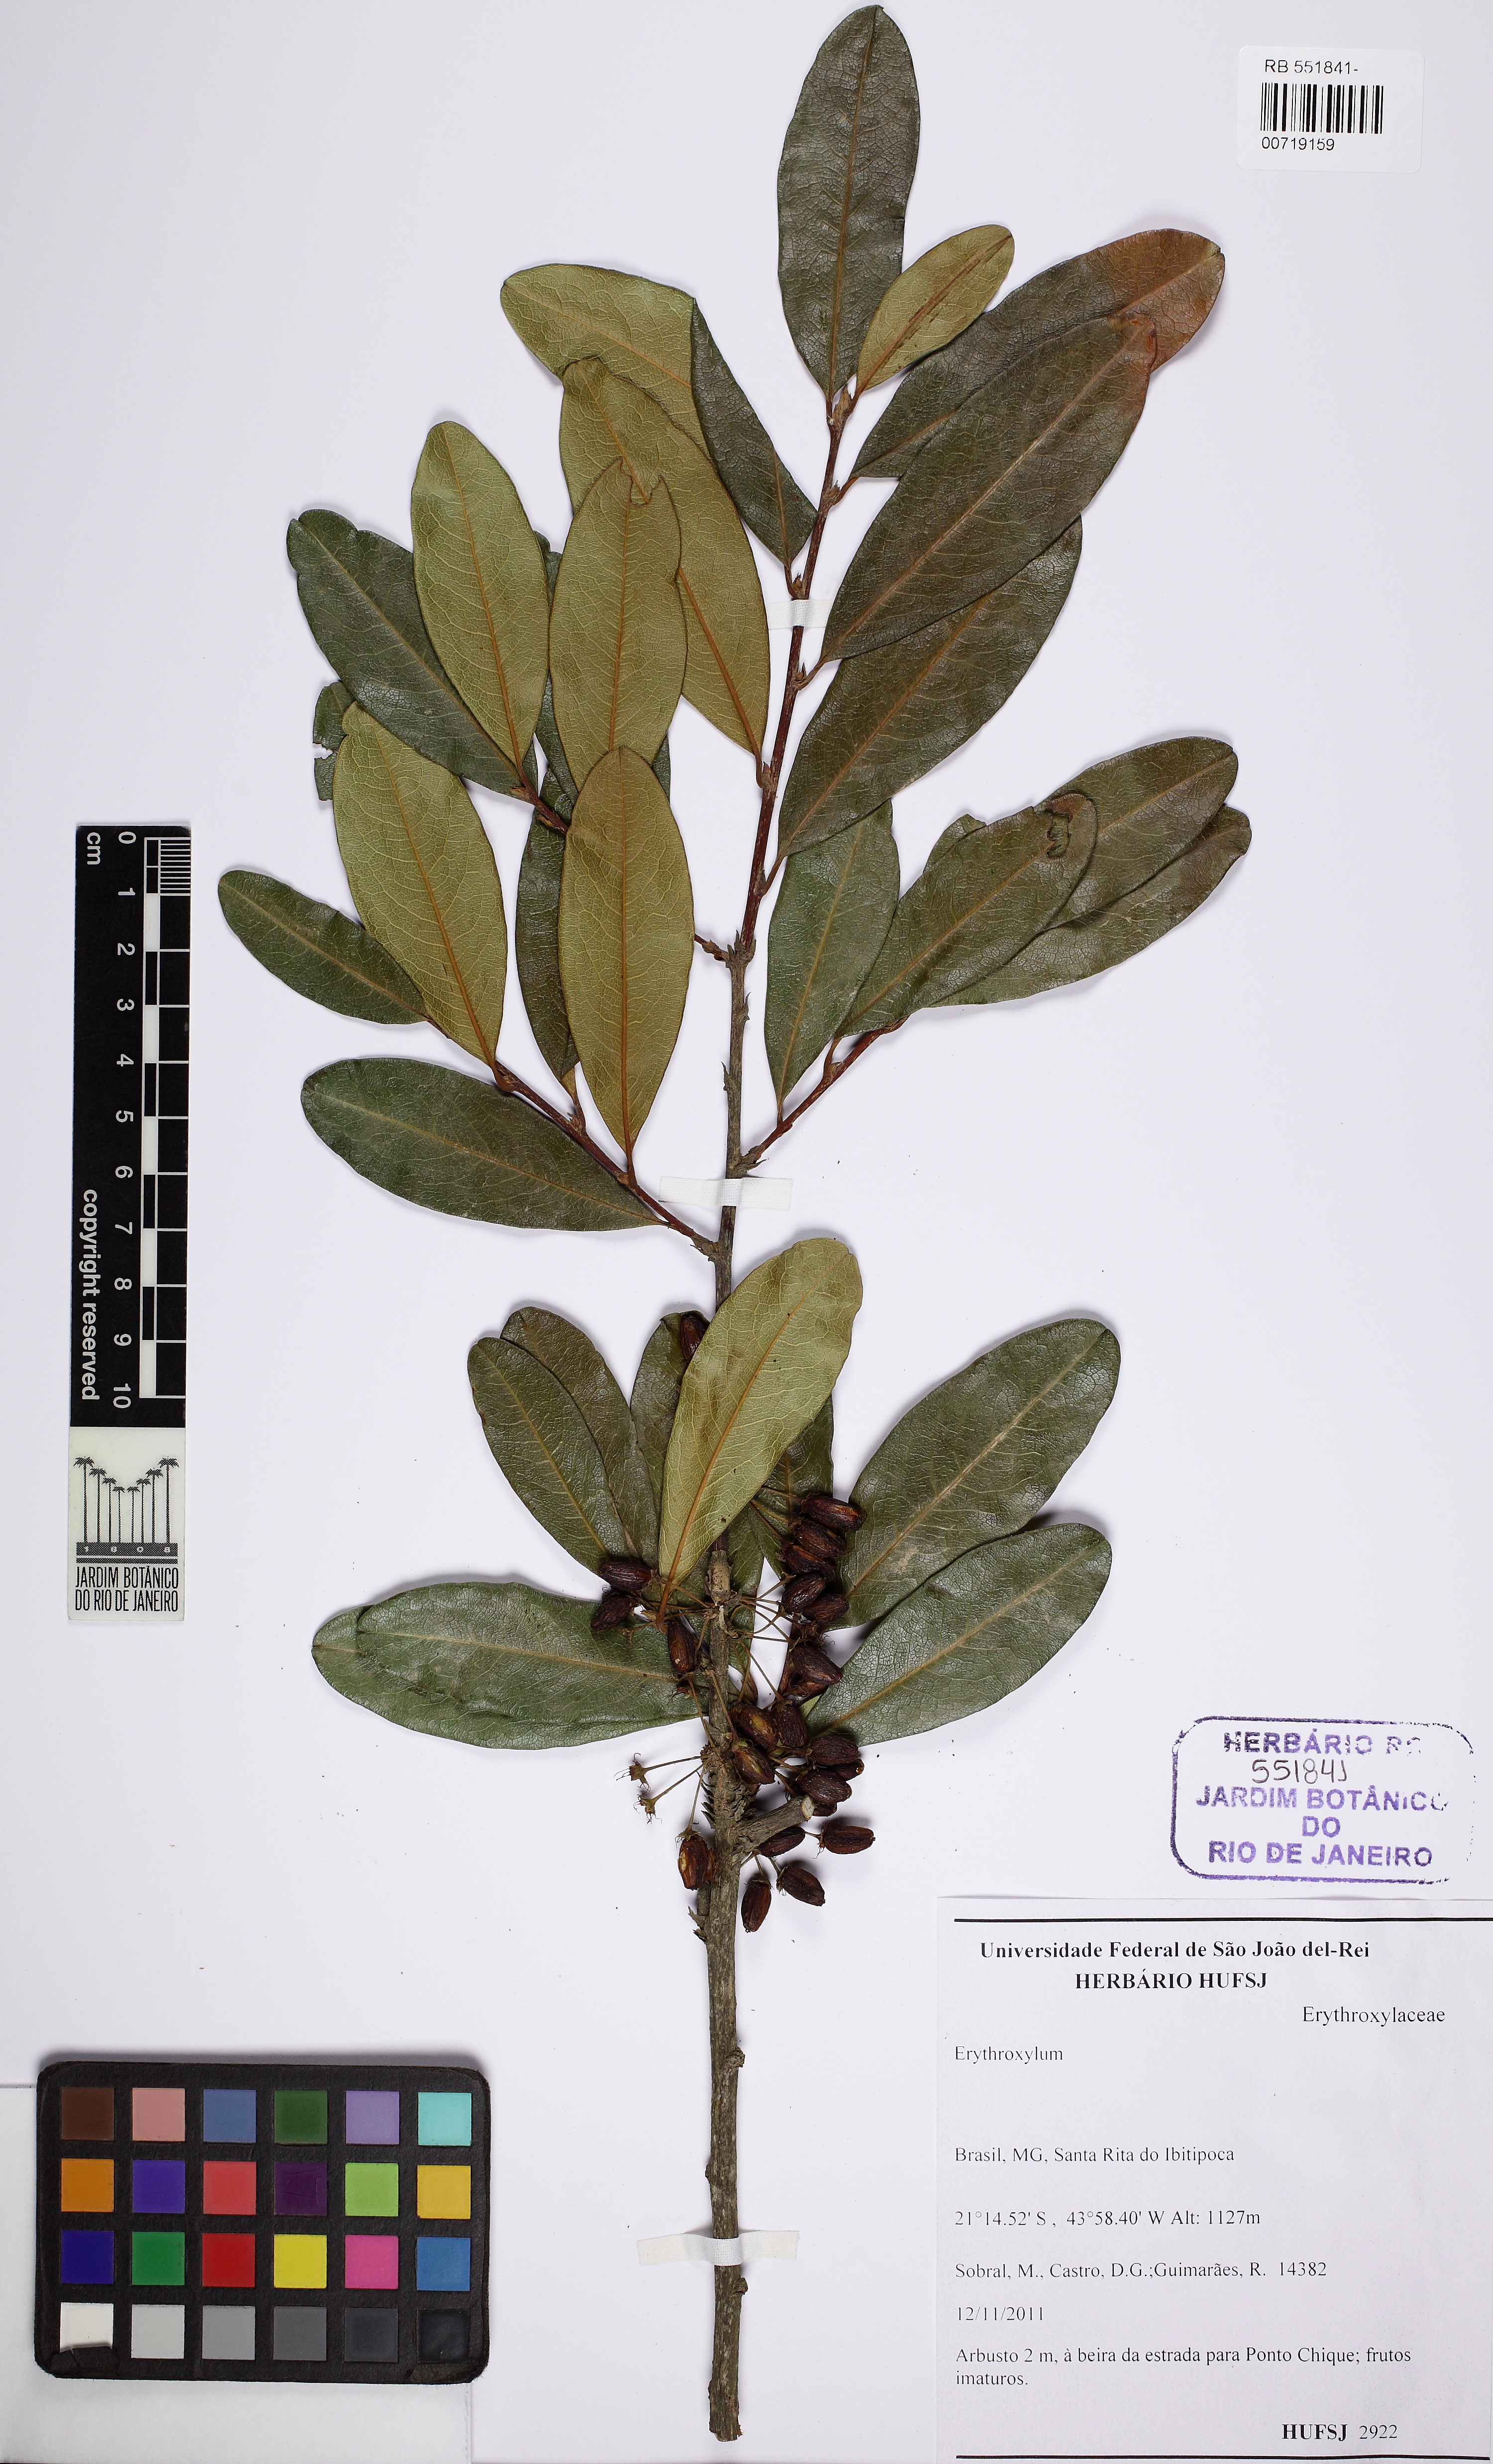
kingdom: Plantae
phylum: Tracheophyta
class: Magnoliopsida
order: Malpighiales
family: Erythroxylaceae
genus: Erythroxylum
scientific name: Erythroxylum deciduum
